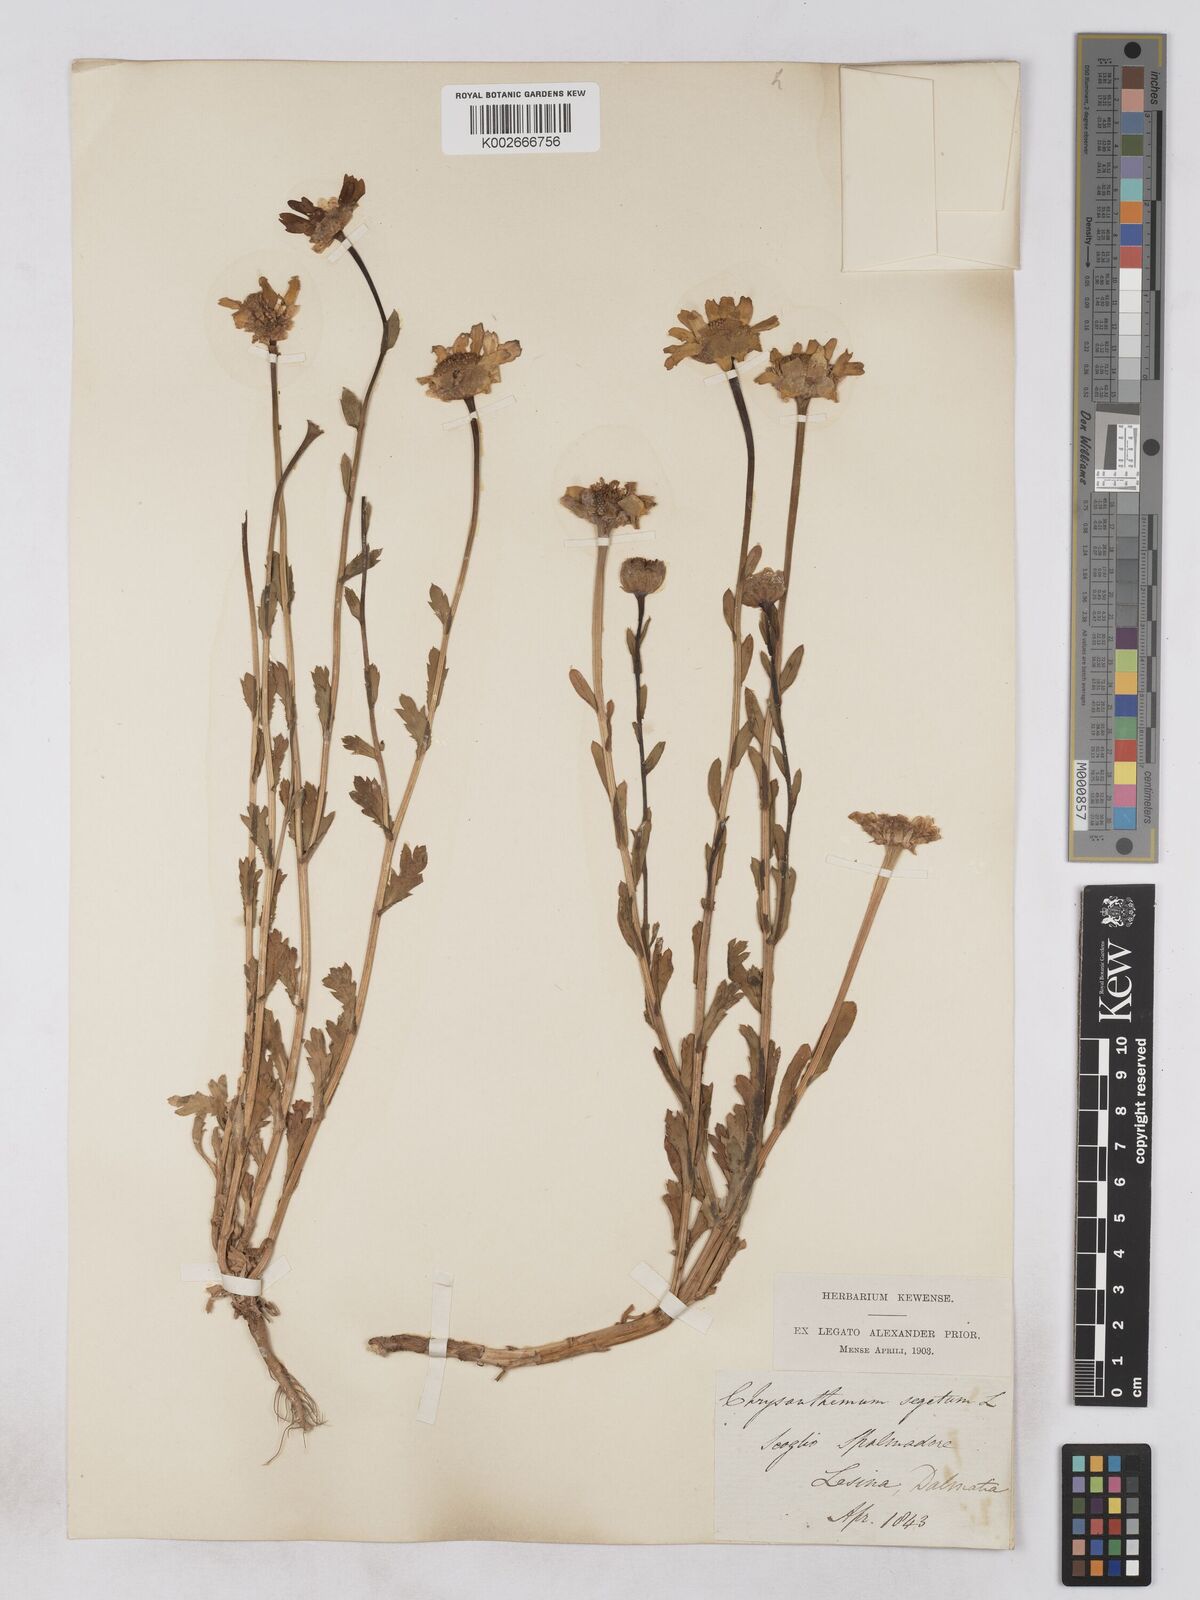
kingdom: Plantae
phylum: Tracheophyta
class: Magnoliopsida
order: Asterales
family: Asteraceae
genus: Glebionis
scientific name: Glebionis segetum
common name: Corndaisy
